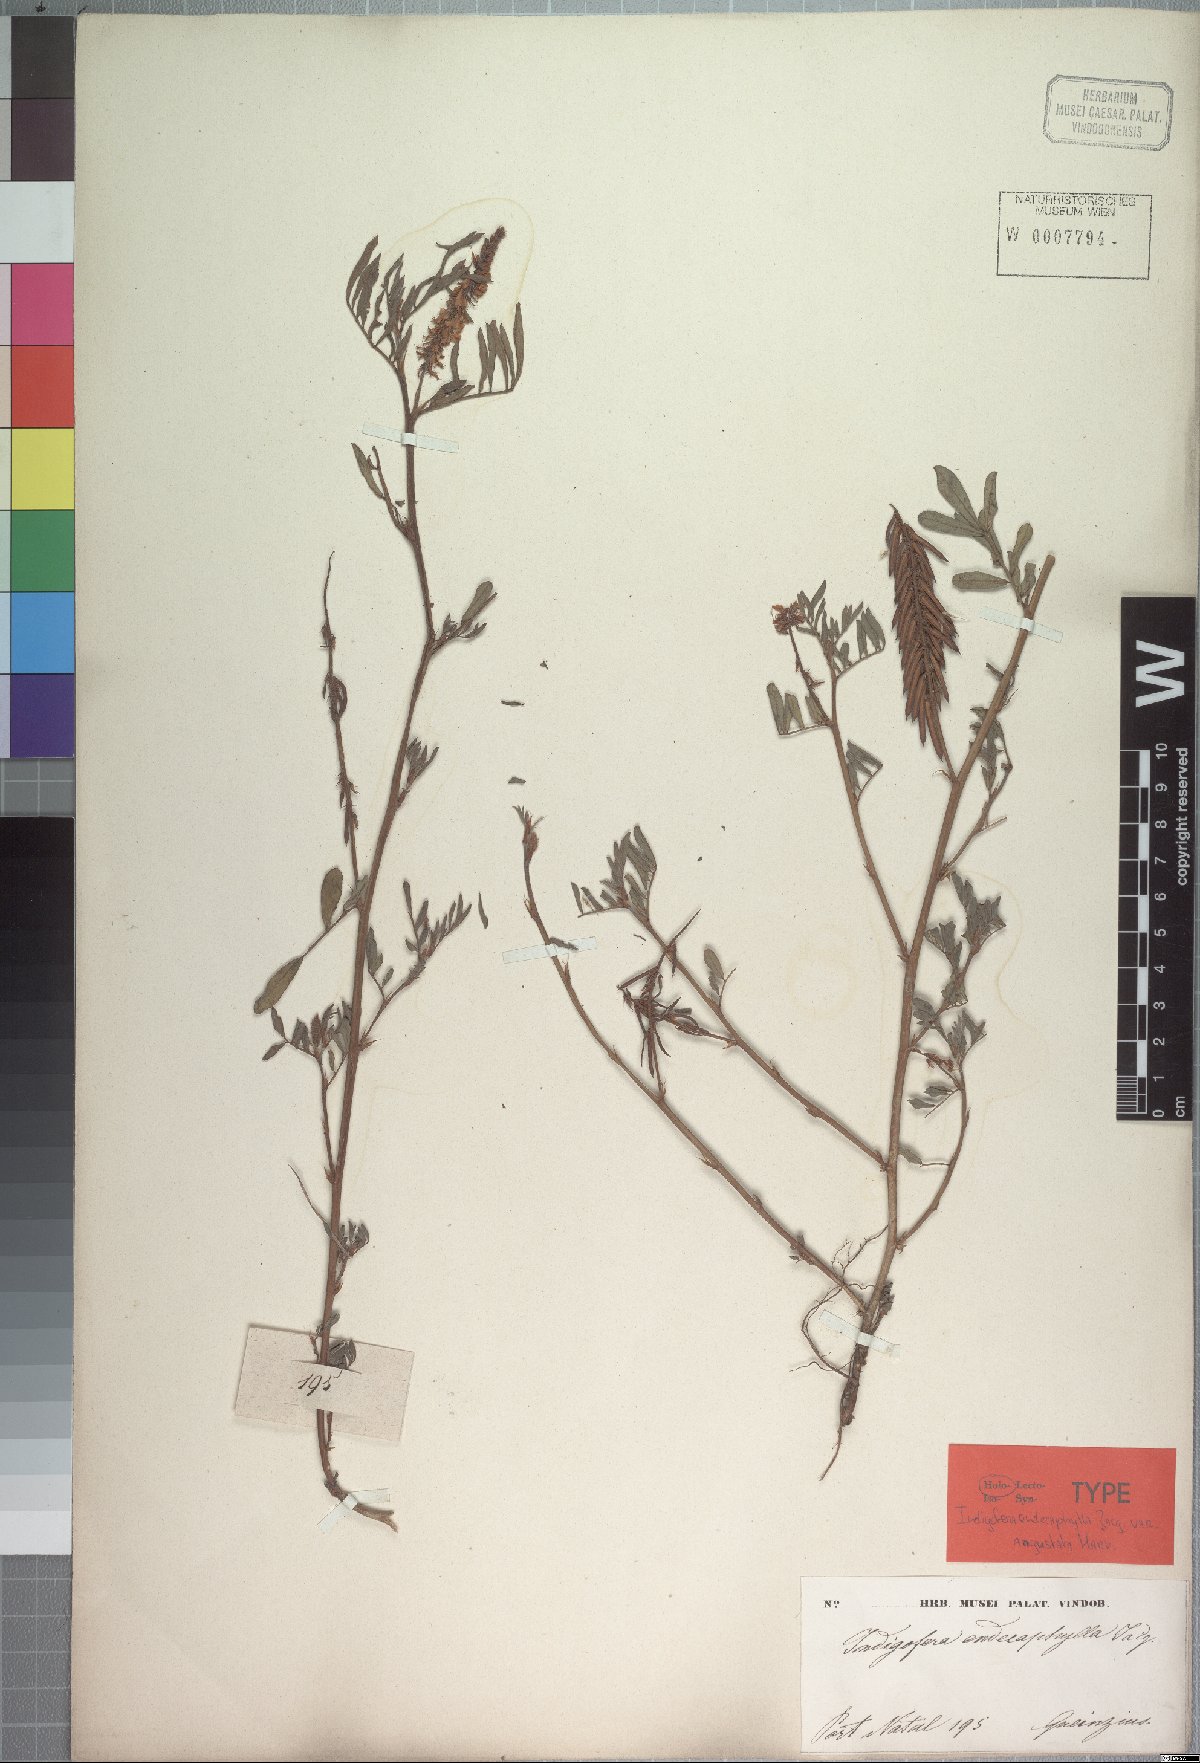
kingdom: Plantae
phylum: Tracheophyta
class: Magnoliopsida
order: Fabales
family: Fabaceae
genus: Indigofera
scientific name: Indigofera spicata
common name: Creeping indigo
